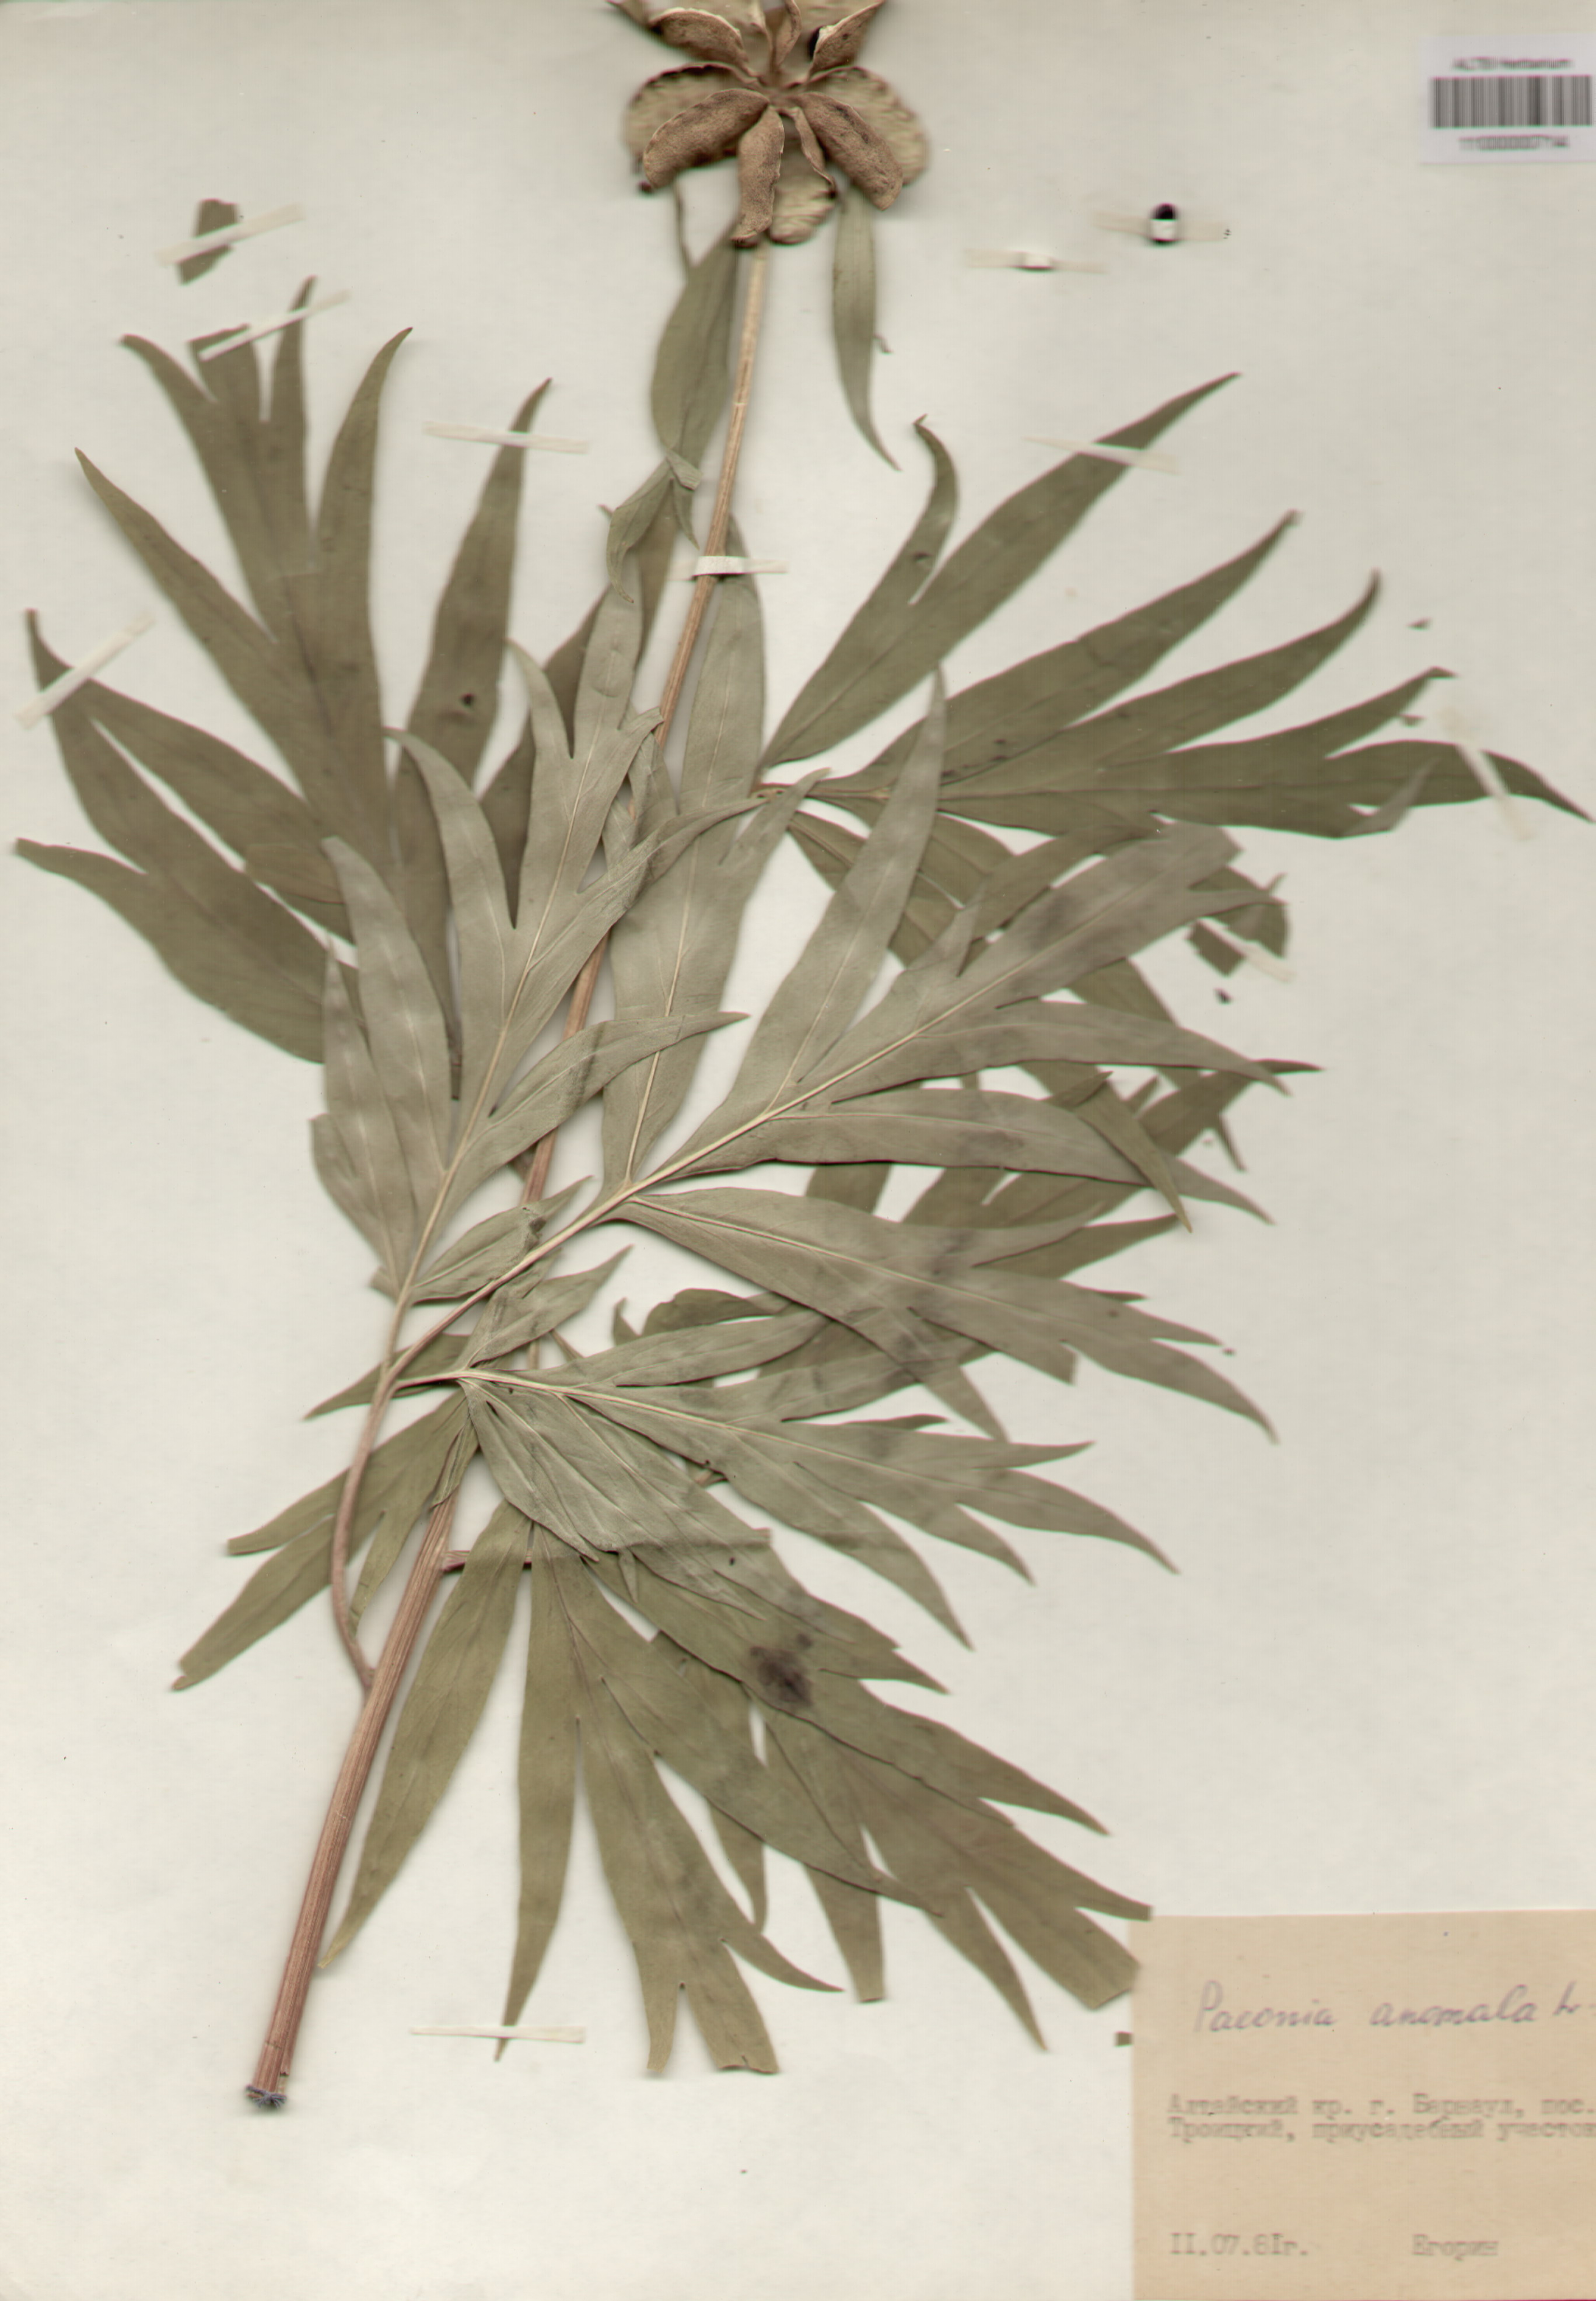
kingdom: Plantae
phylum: Tracheophyta
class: Magnoliopsida
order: Saxifragales
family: Paeoniaceae
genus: Paeonia
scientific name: Paeonia anomala
